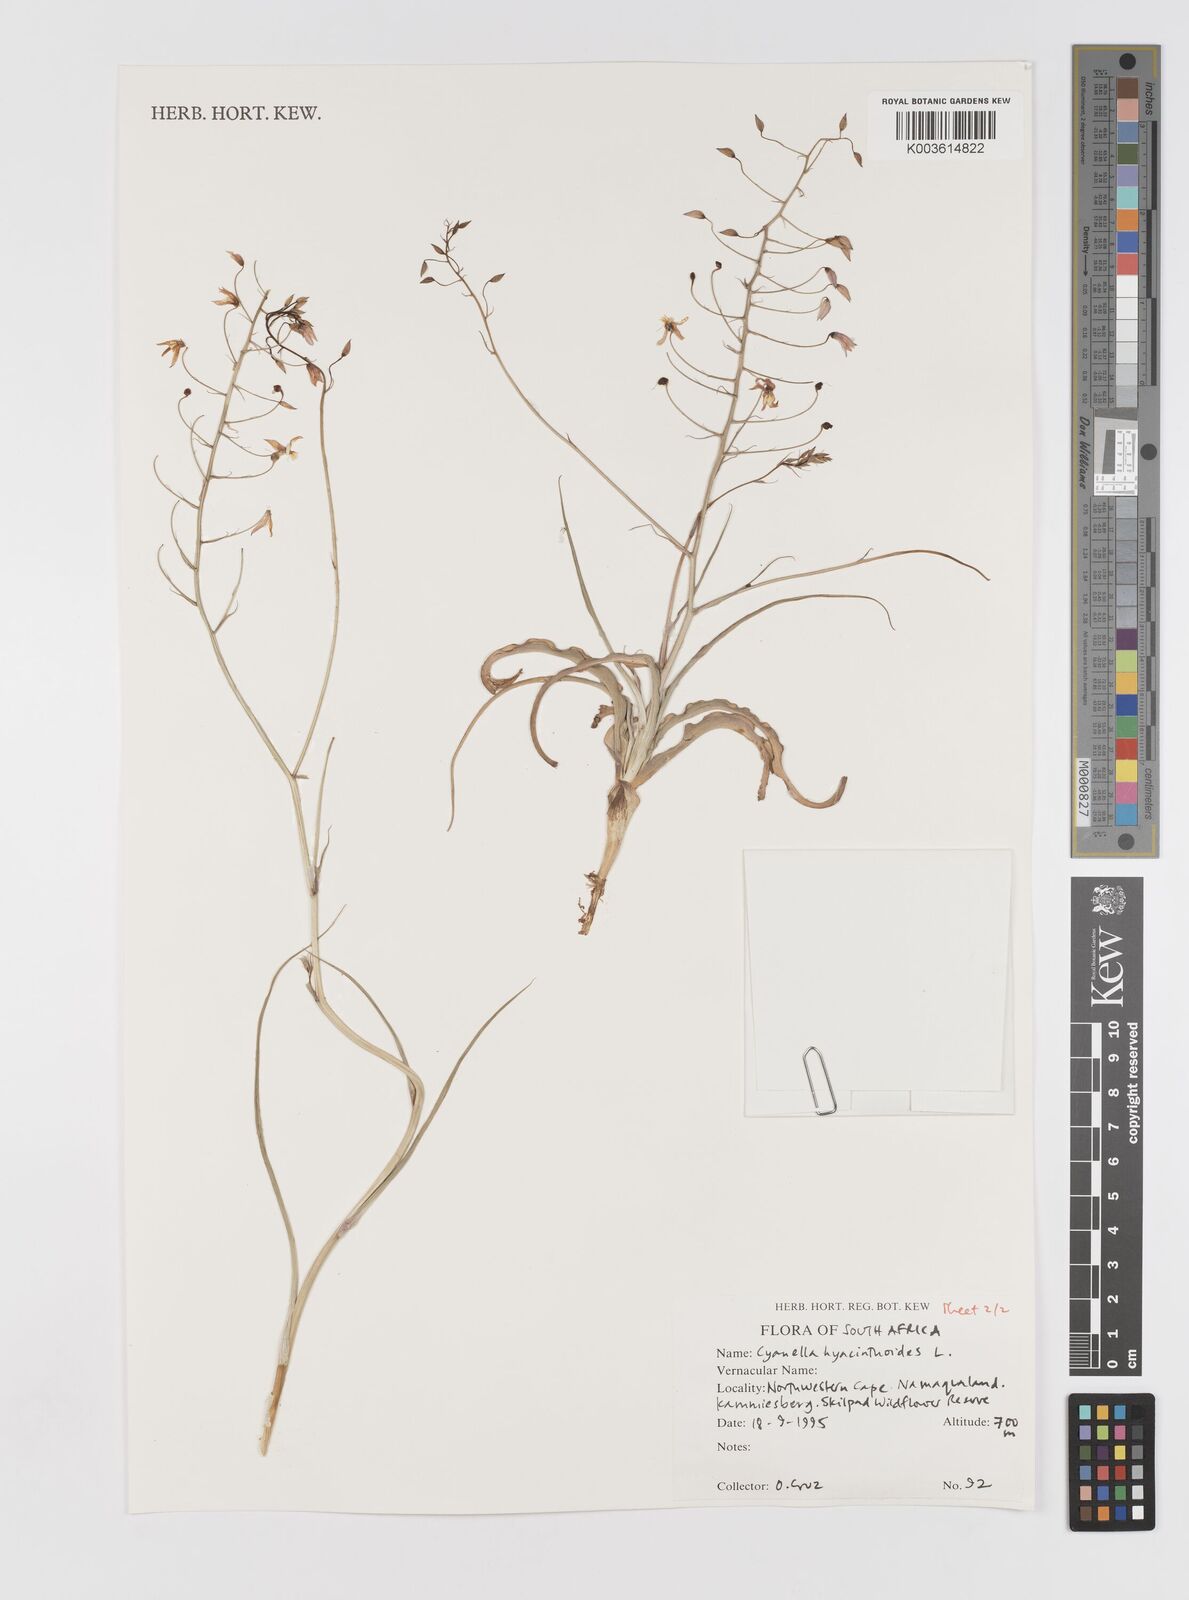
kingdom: Plantae
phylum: Tracheophyta
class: Liliopsida
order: Asparagales
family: Tecophilaeaceae
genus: Cyanella
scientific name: Cyanella hyacinthoides
